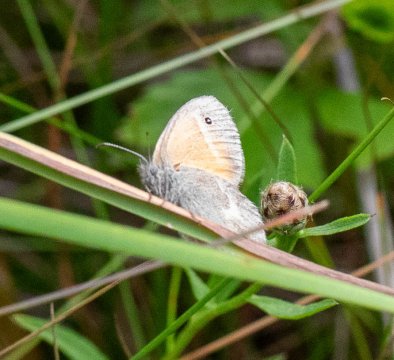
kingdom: Animalia
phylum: Arthropoda
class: Insecta
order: Lepidoptera
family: Nymphalidae
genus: Coenonympha
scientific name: Coenonympha tullia
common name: Large Heath
